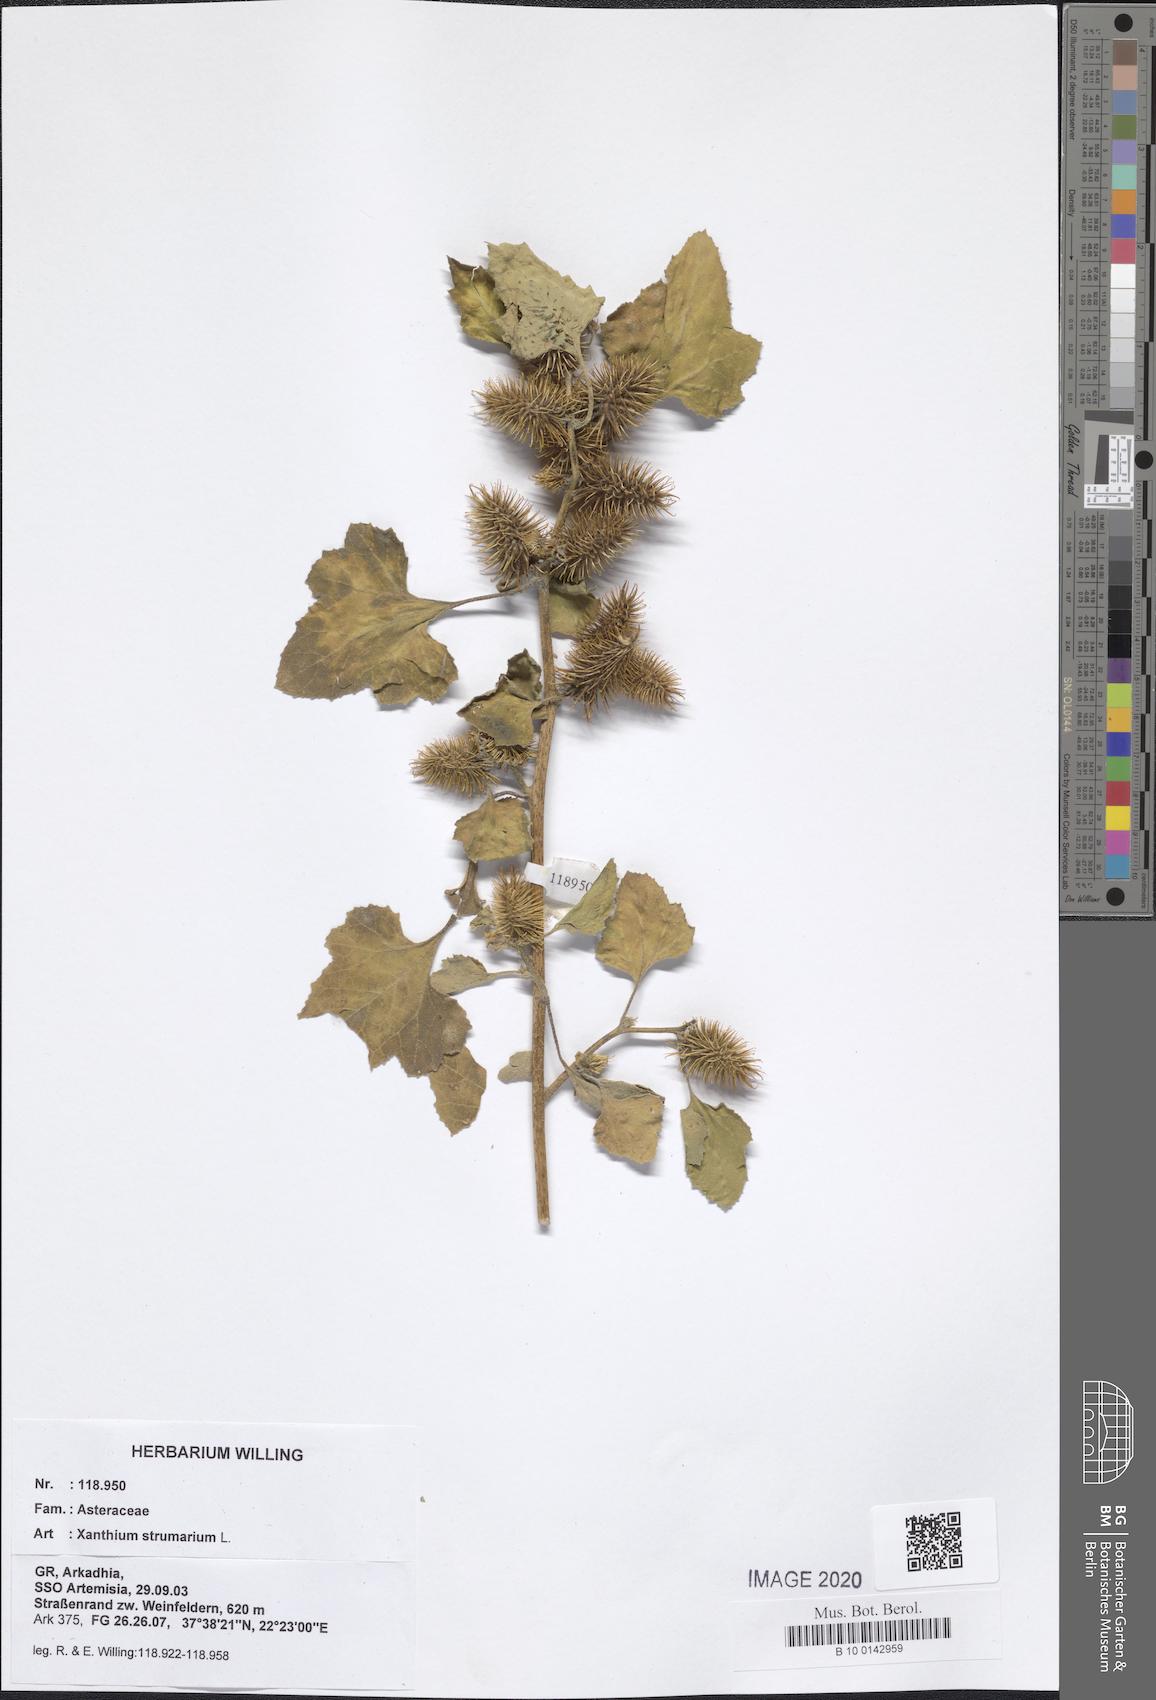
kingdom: Plantae
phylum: Tracheophyta
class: Magnoliopsida
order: Asterales
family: Asteraceae
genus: Xanthium
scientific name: Xanthium strumarium
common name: Rough cocklebur
